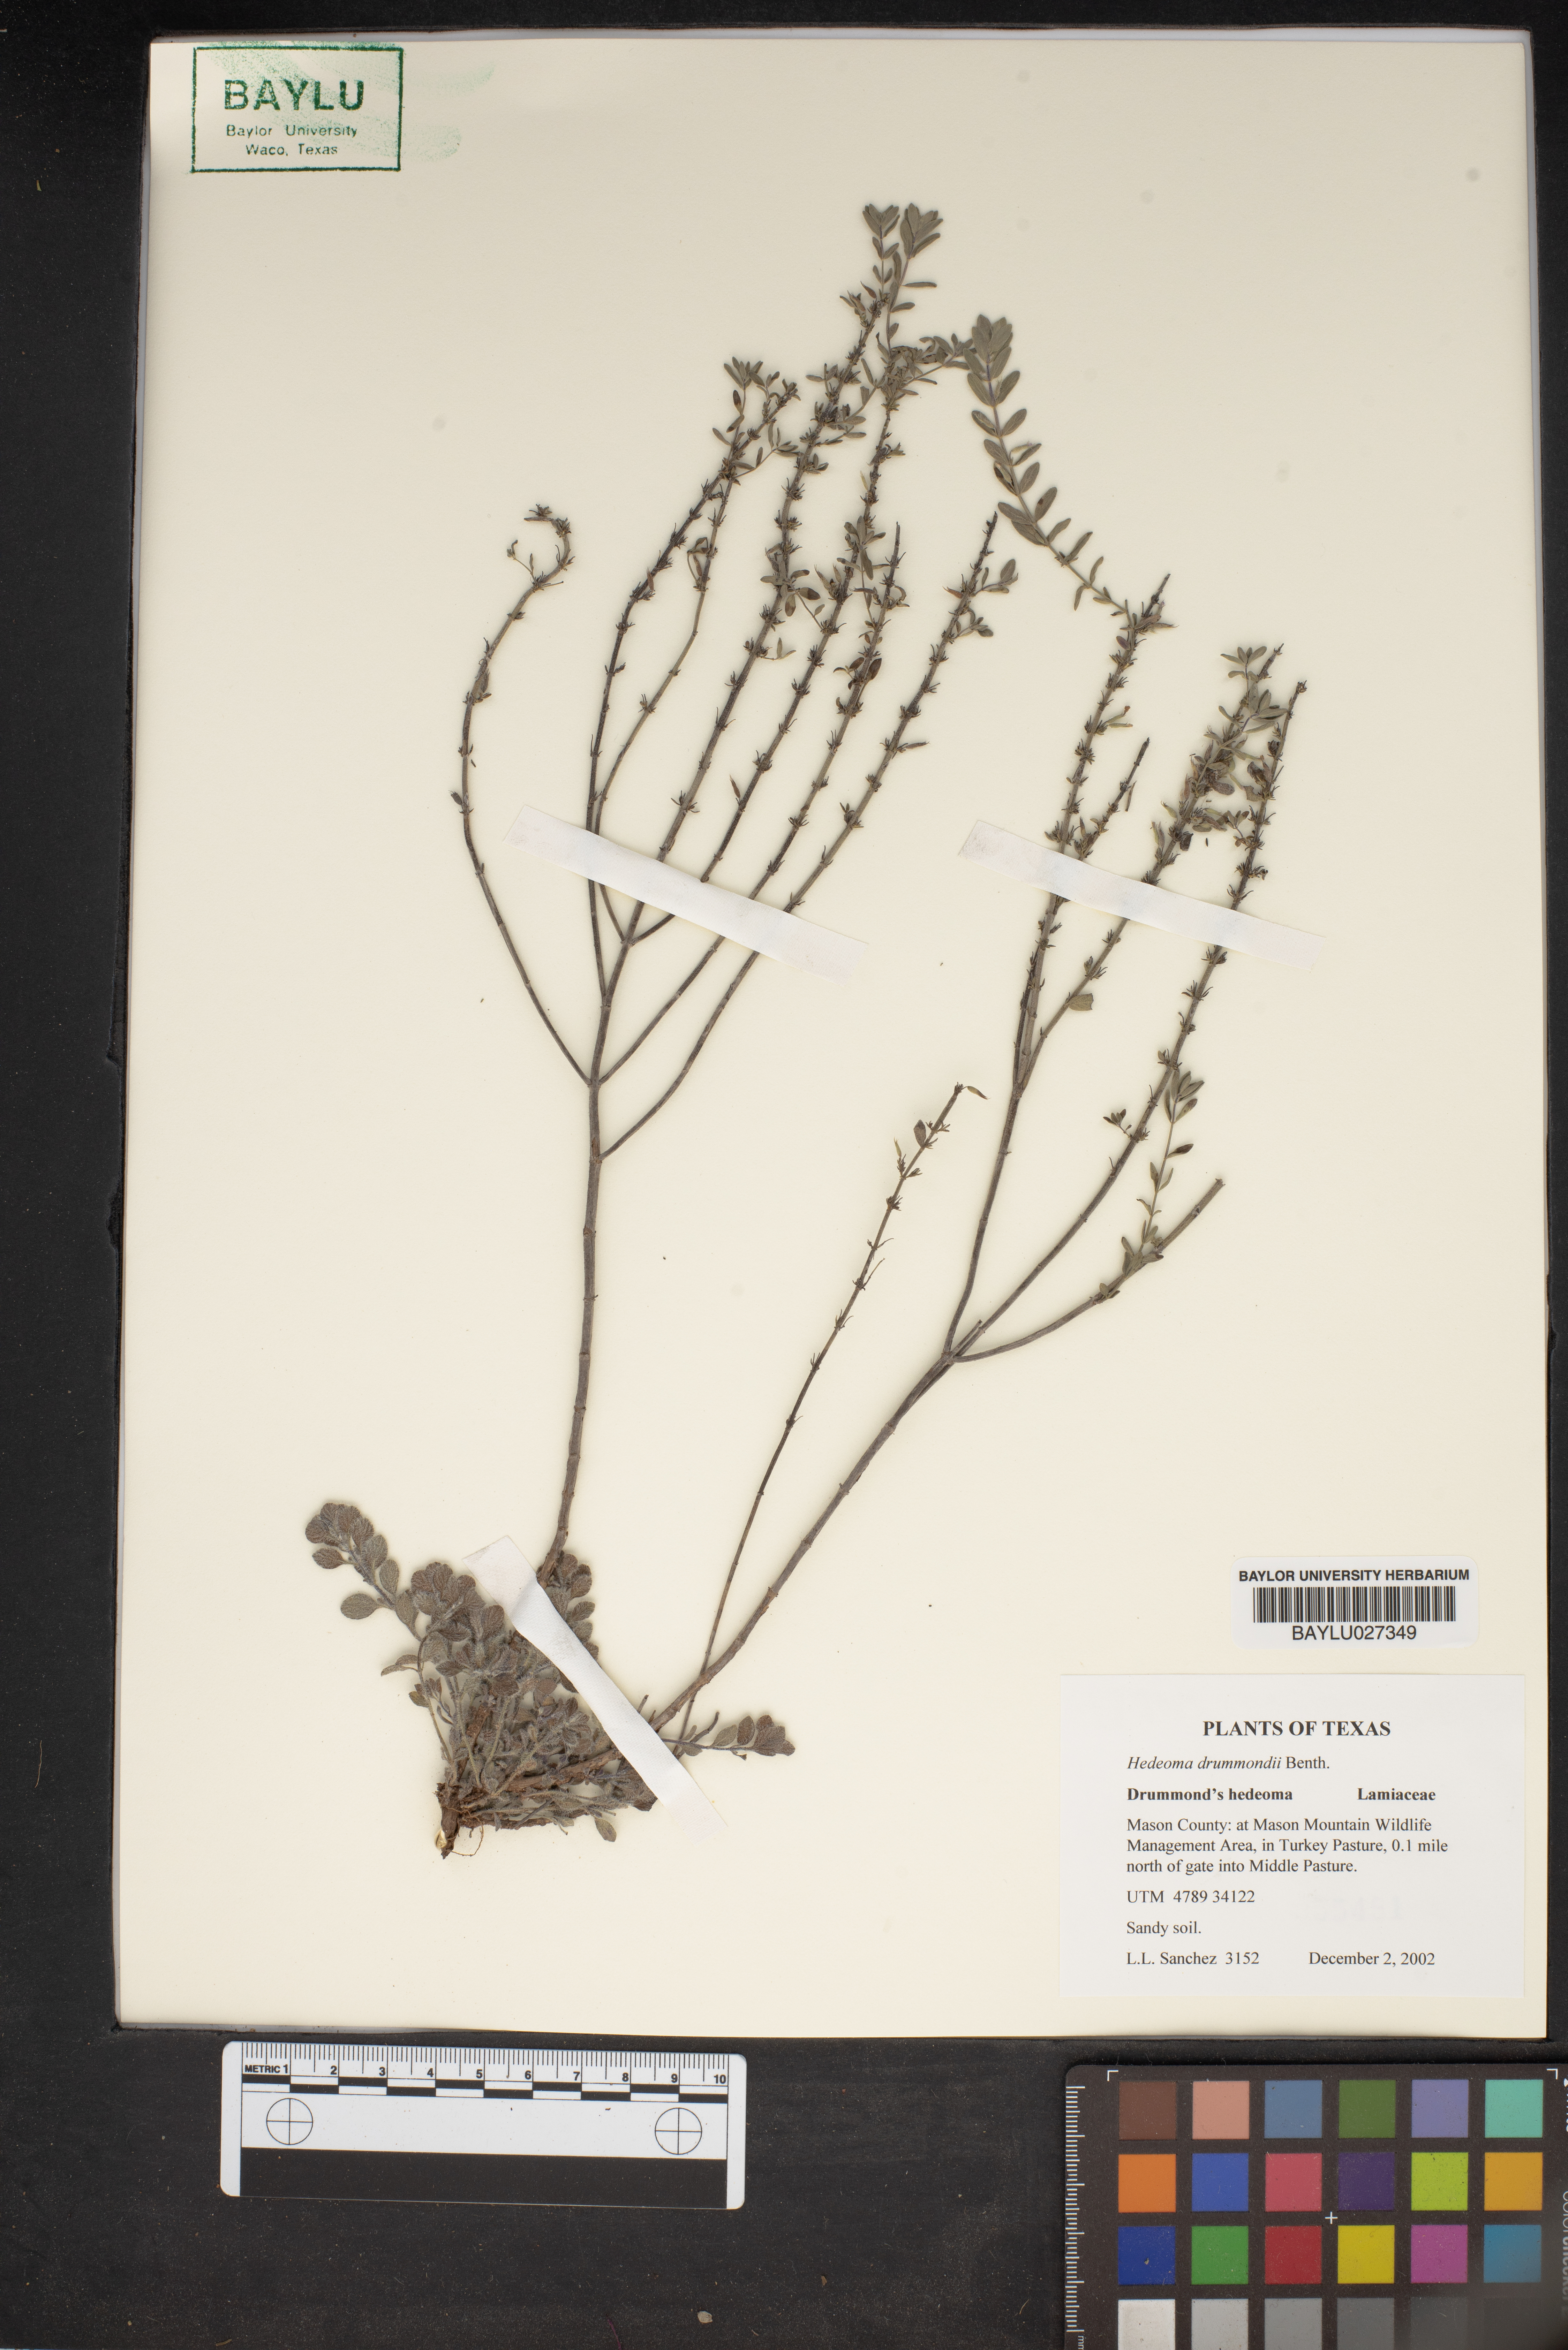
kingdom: Plantae
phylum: Tracheophyta
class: Magnoliopsida
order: Lamiales
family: Lamiaceae
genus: Hedeoma
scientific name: Hedeoma drummondii
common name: New mexico pennyroyal
